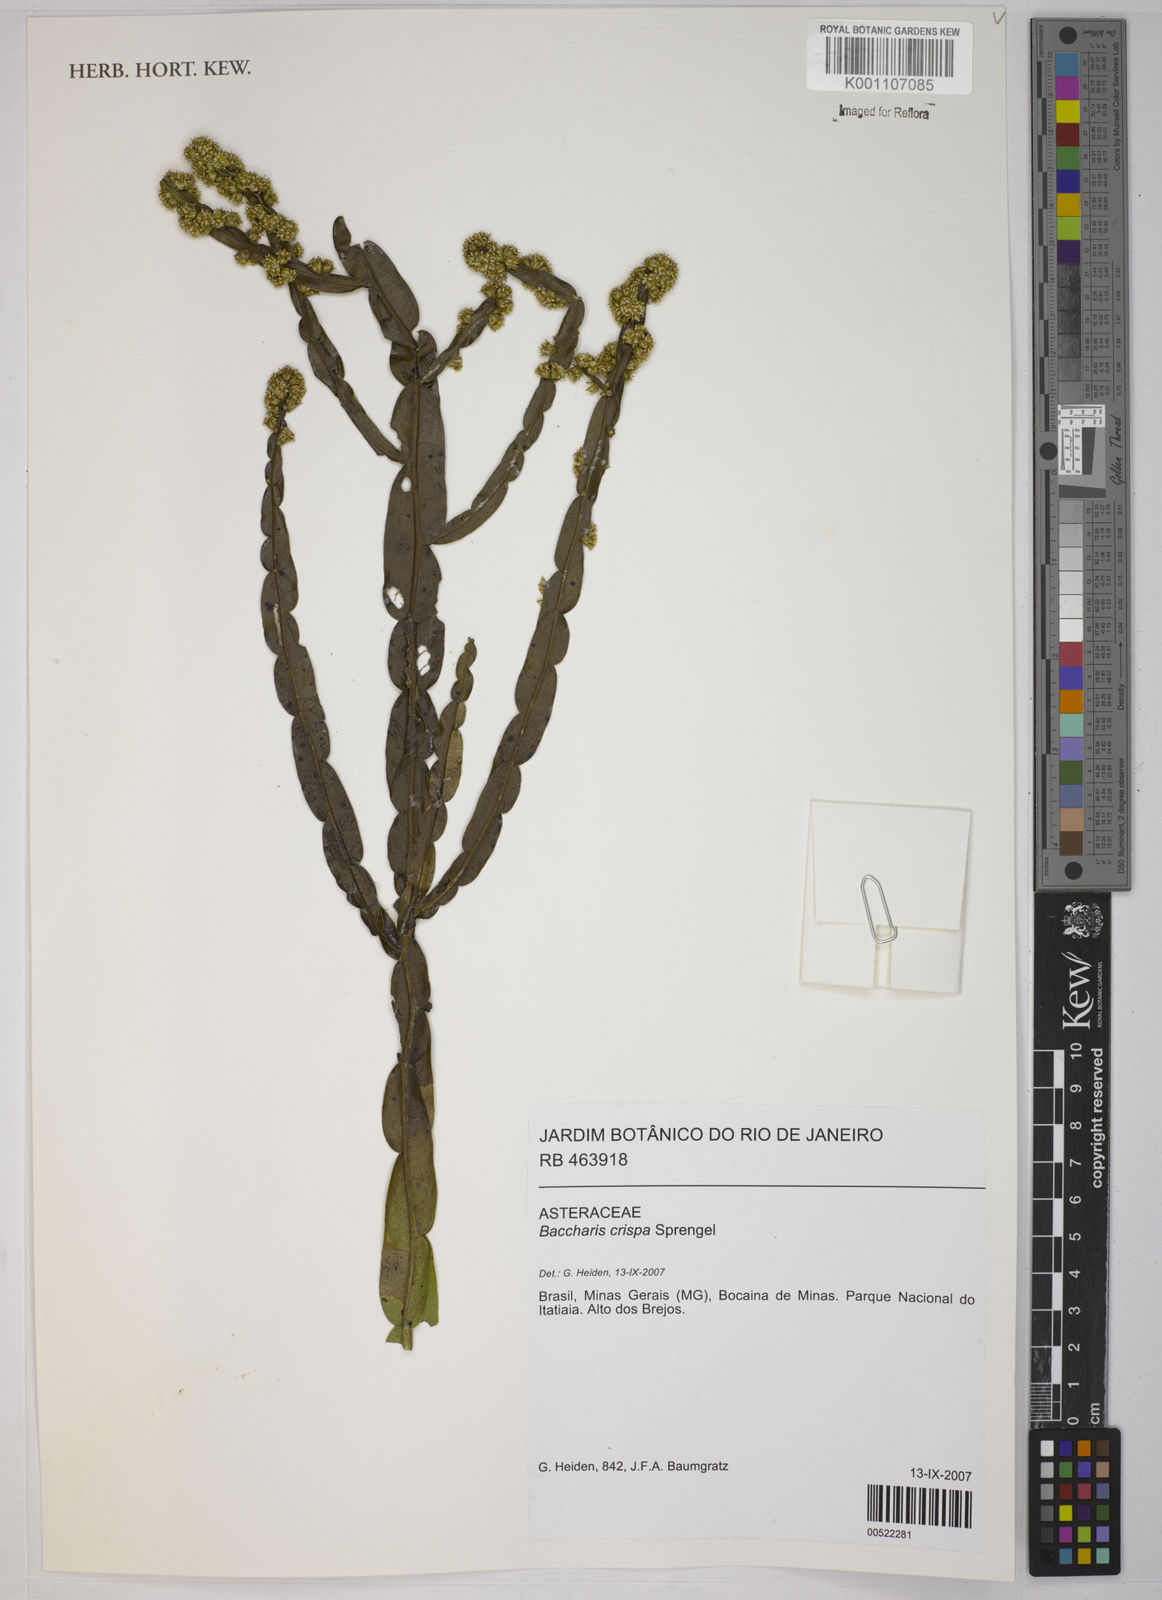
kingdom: Plantae
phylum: Tracheophyta
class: Magnoliopsida
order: Asterales
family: Asteraceae
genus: Baccharis
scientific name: Baccharis crispa
